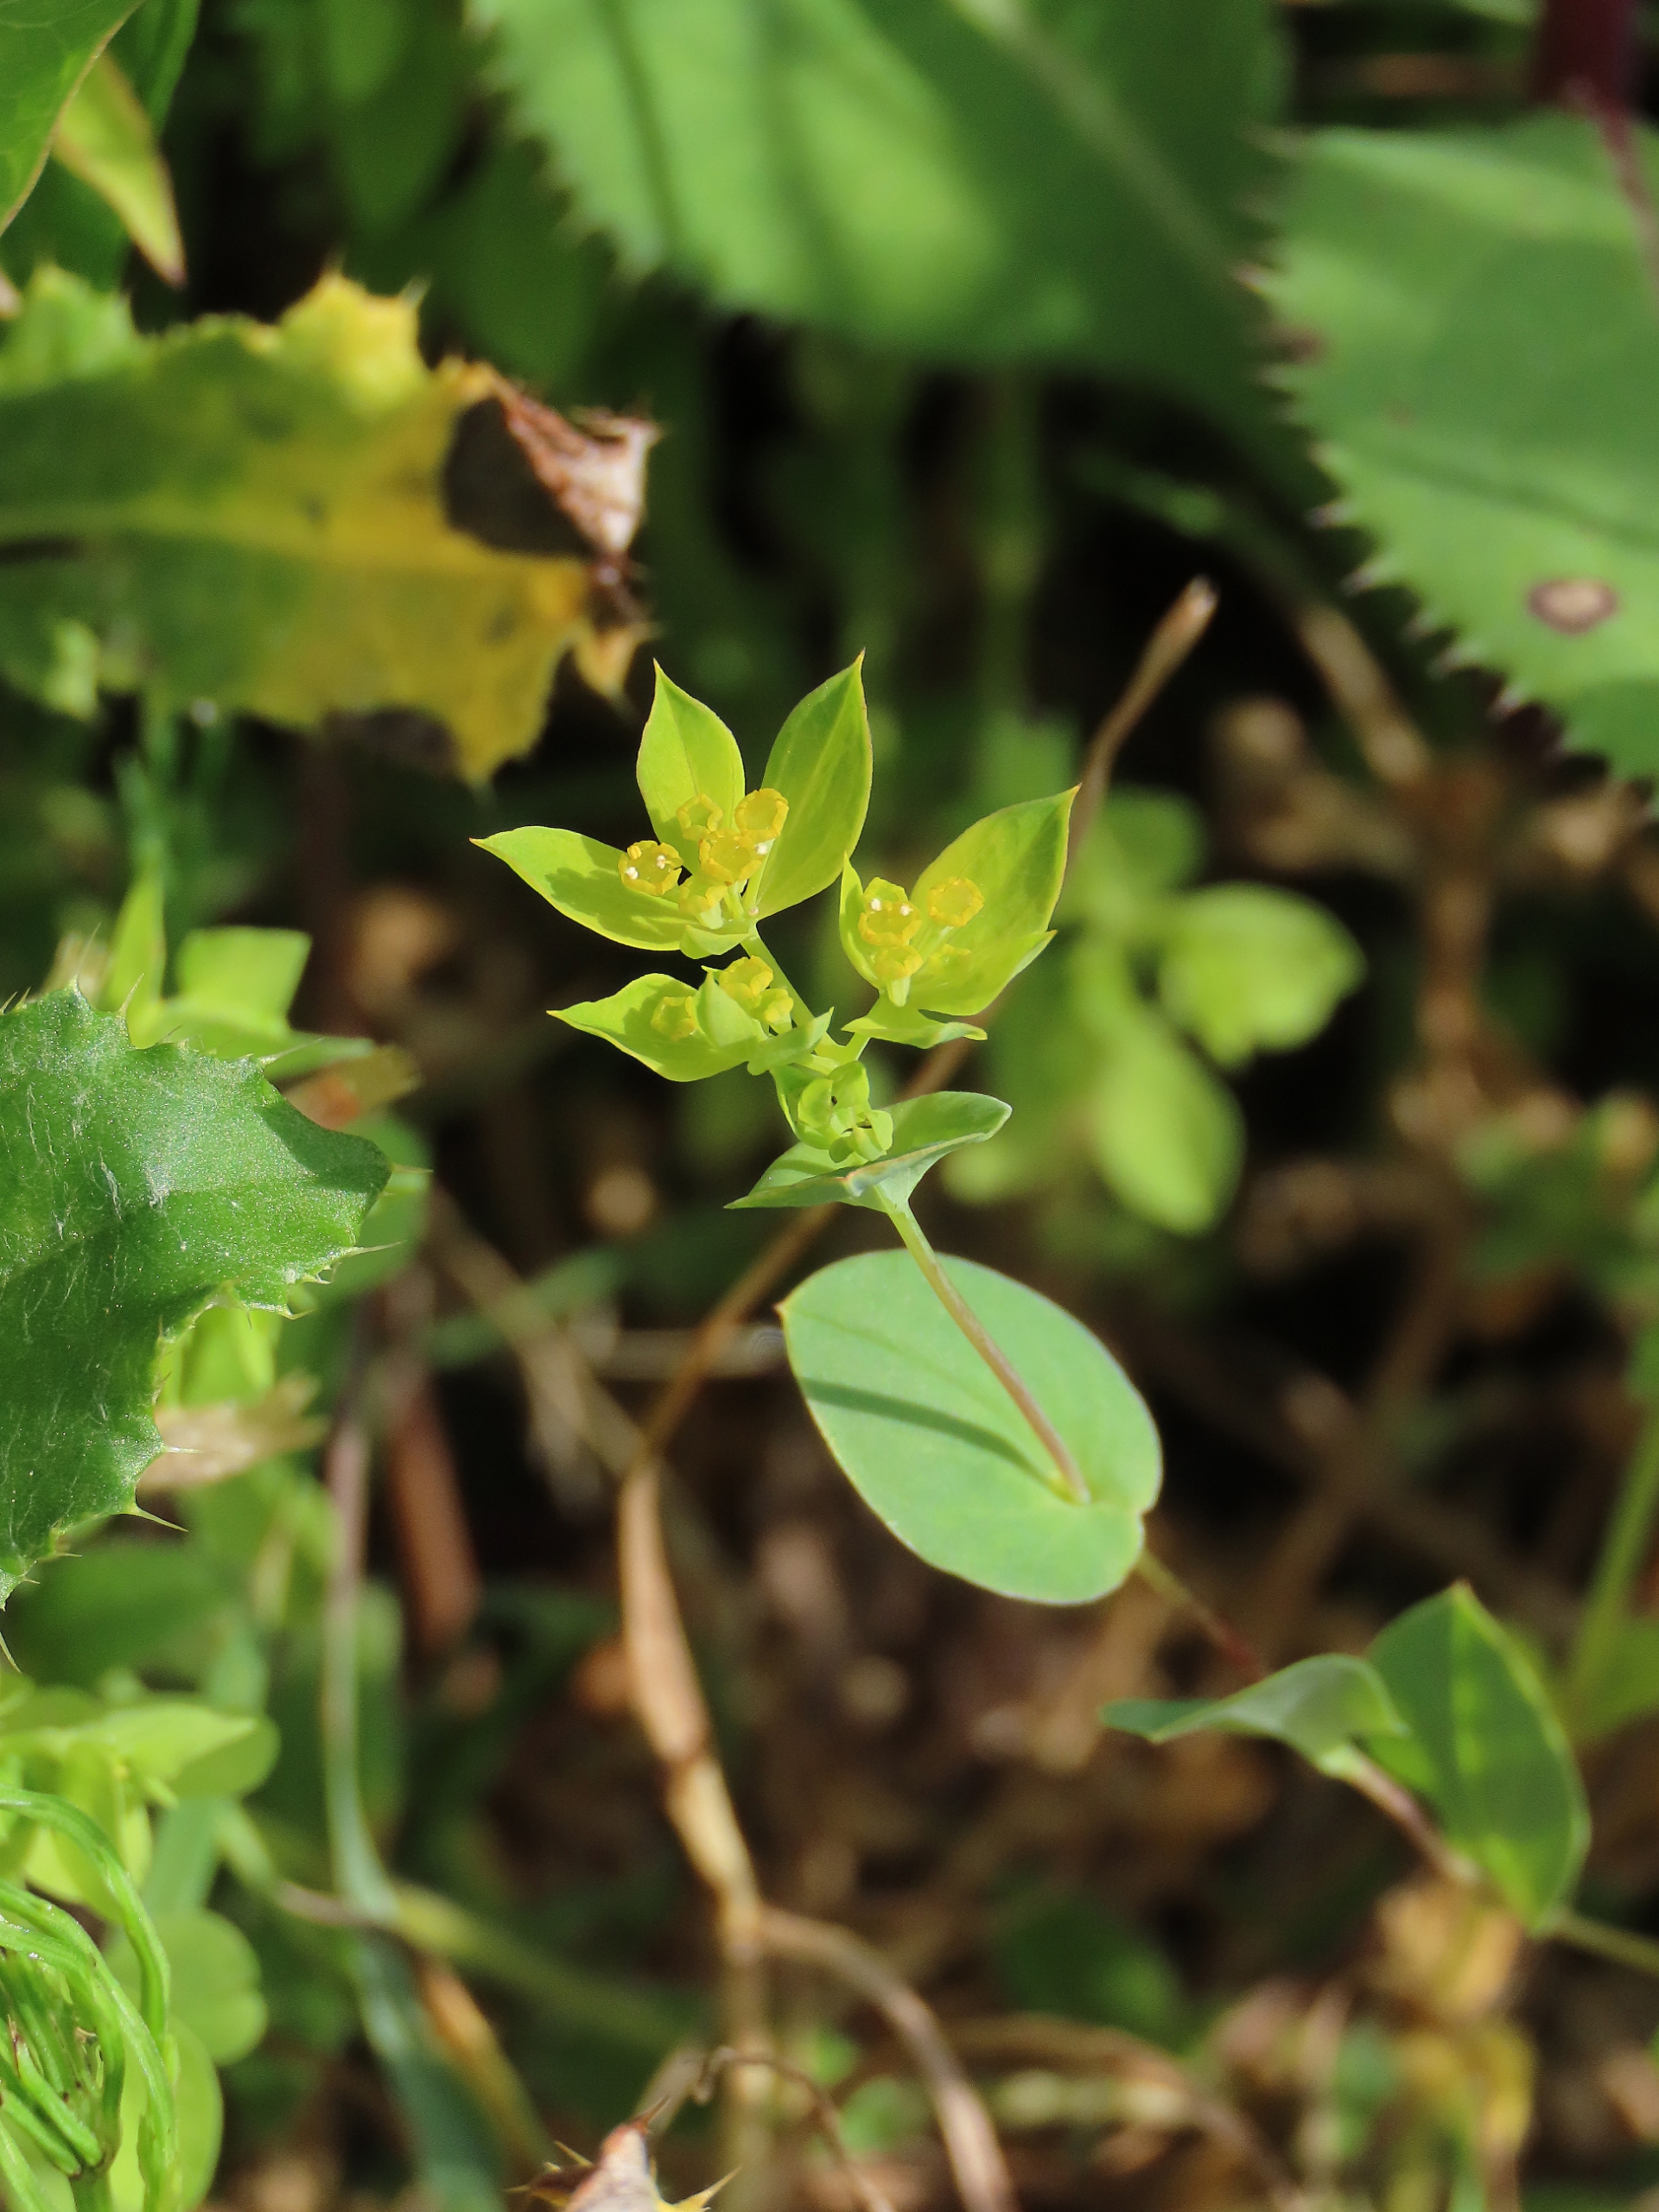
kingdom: Plantae
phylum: Tracheophyta
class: Magnoliopsida
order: Apiales
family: Apiaceae
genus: Bupleurum
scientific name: Bupleurum rotundifolium
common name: Rundbladet hareøre
